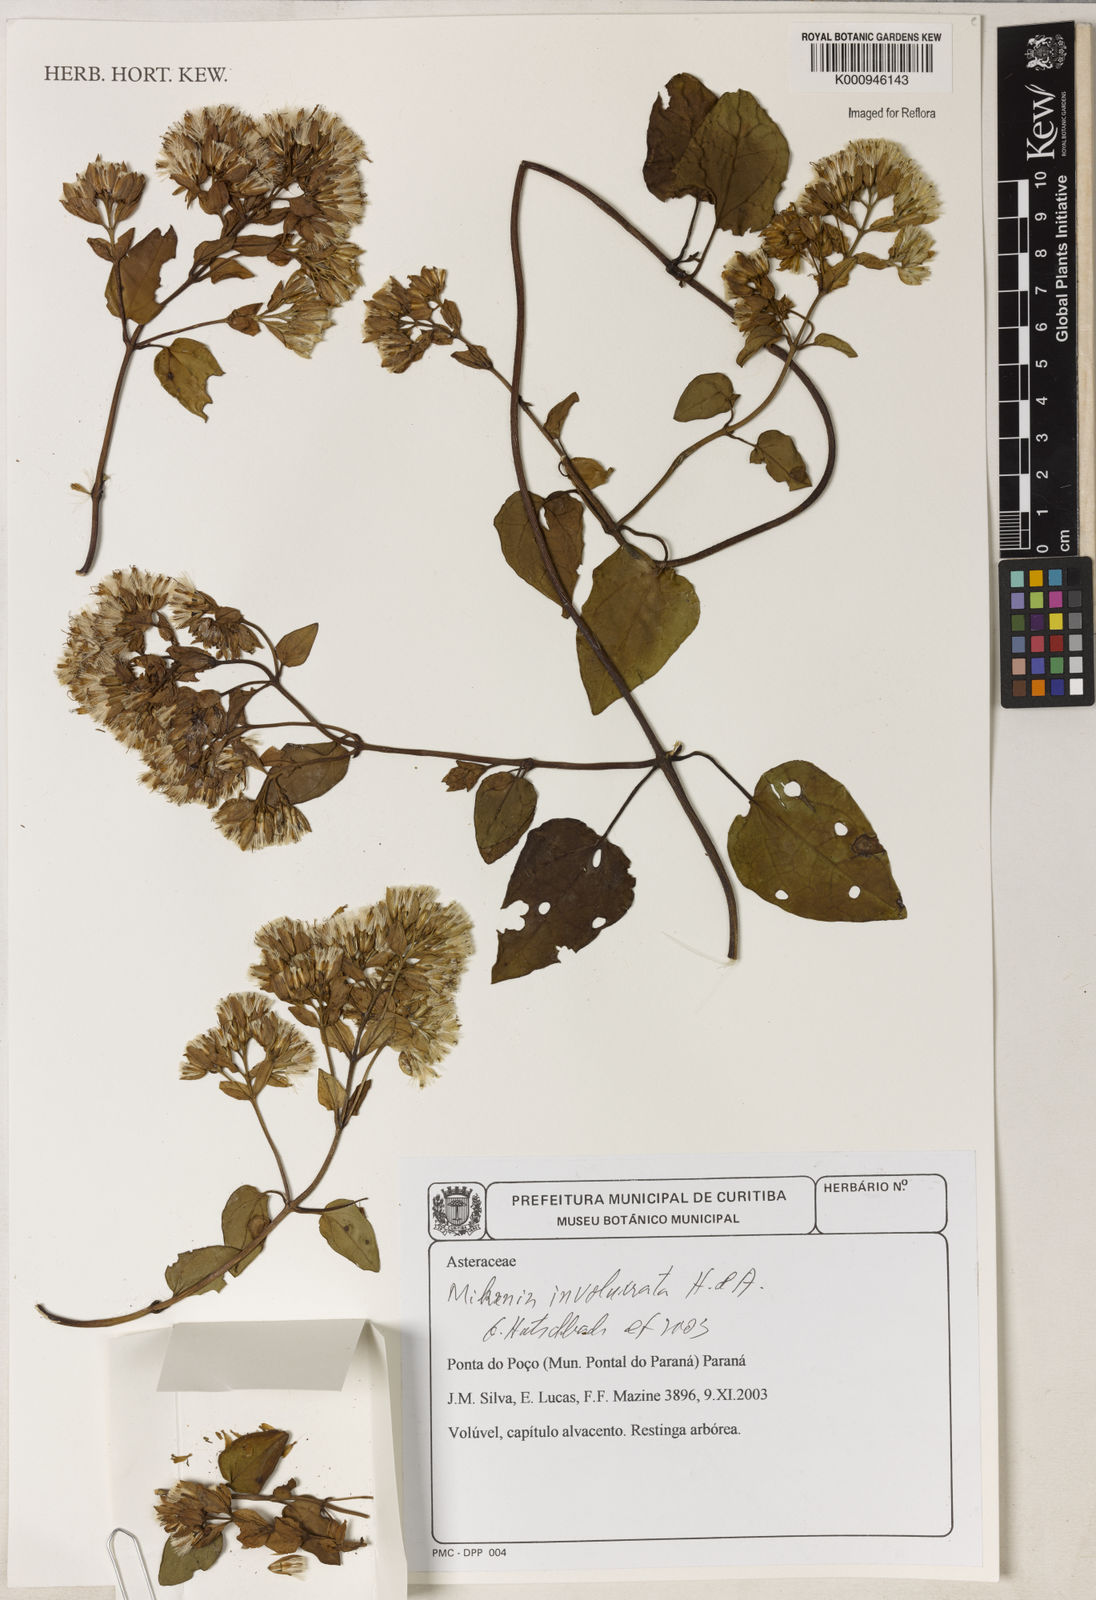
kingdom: Plantae
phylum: Tracheophyta
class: Magnoliopsida
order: Asterales
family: Asteraceae
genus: Mikania
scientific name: Mikania involucrata
